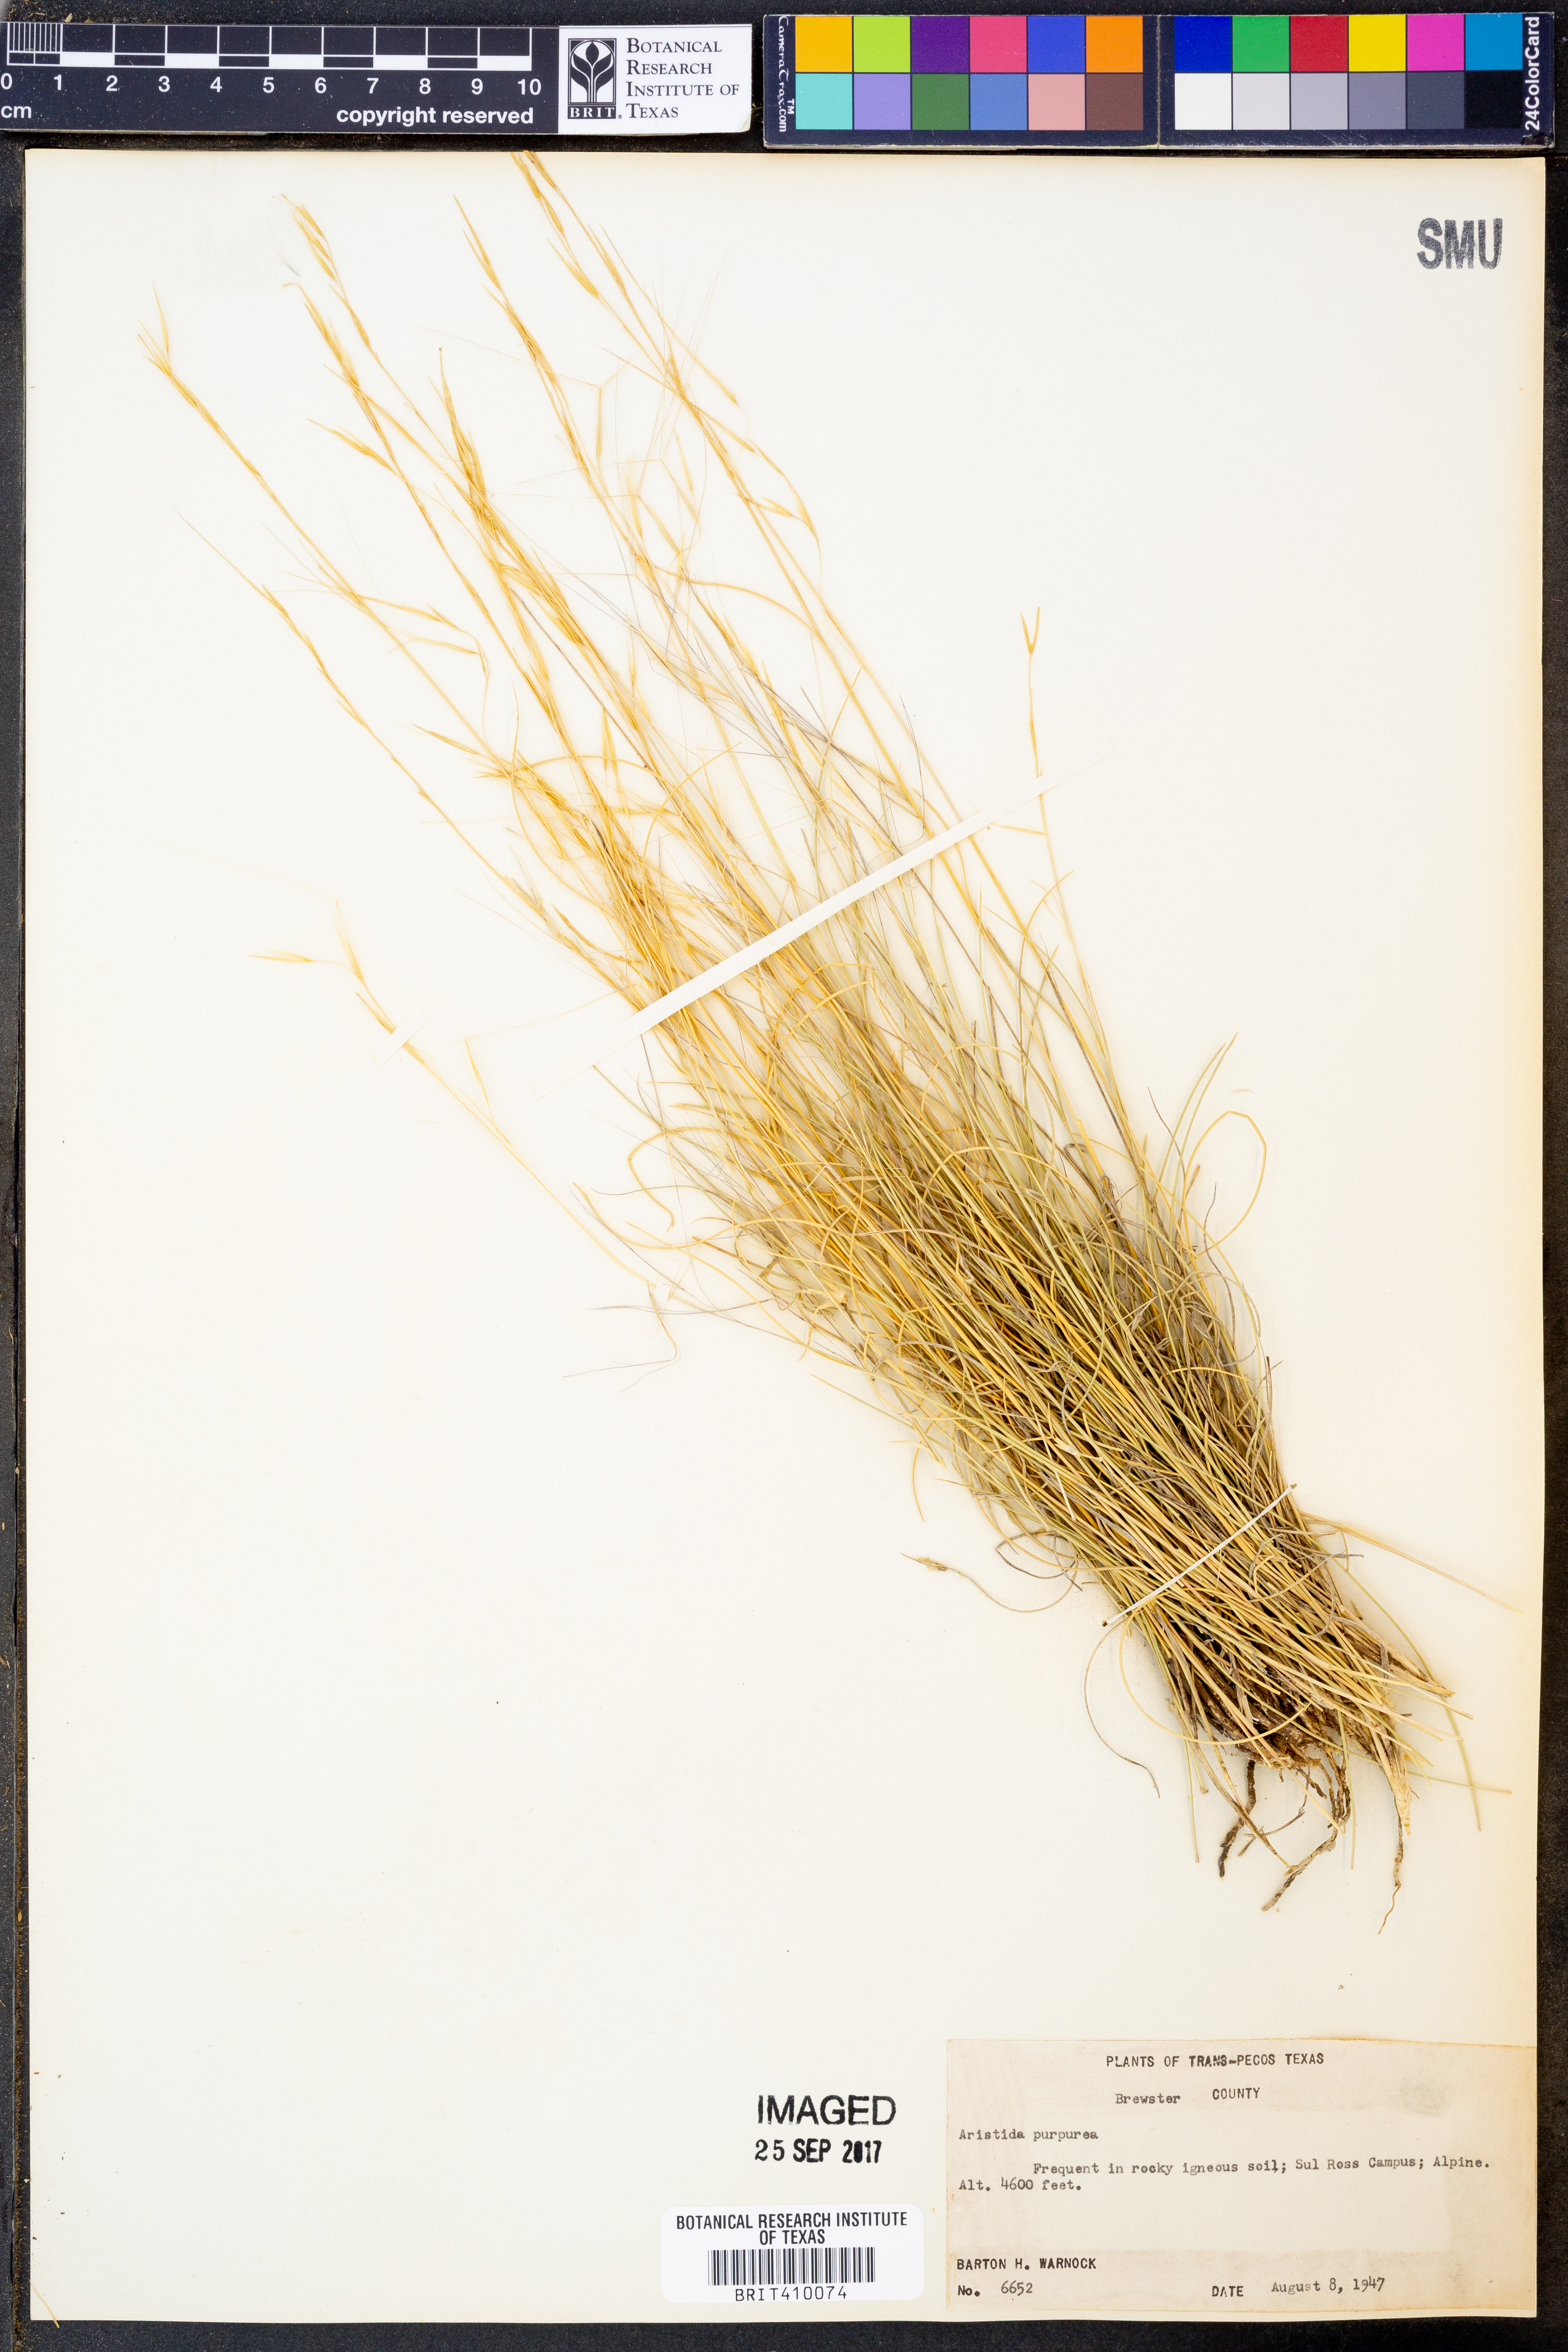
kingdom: Plantae
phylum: Tracheophyta
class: Liliopsida
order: Poales
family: Poaceae
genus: Aristida
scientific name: Aristida purpurea
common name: Purple threeawn
